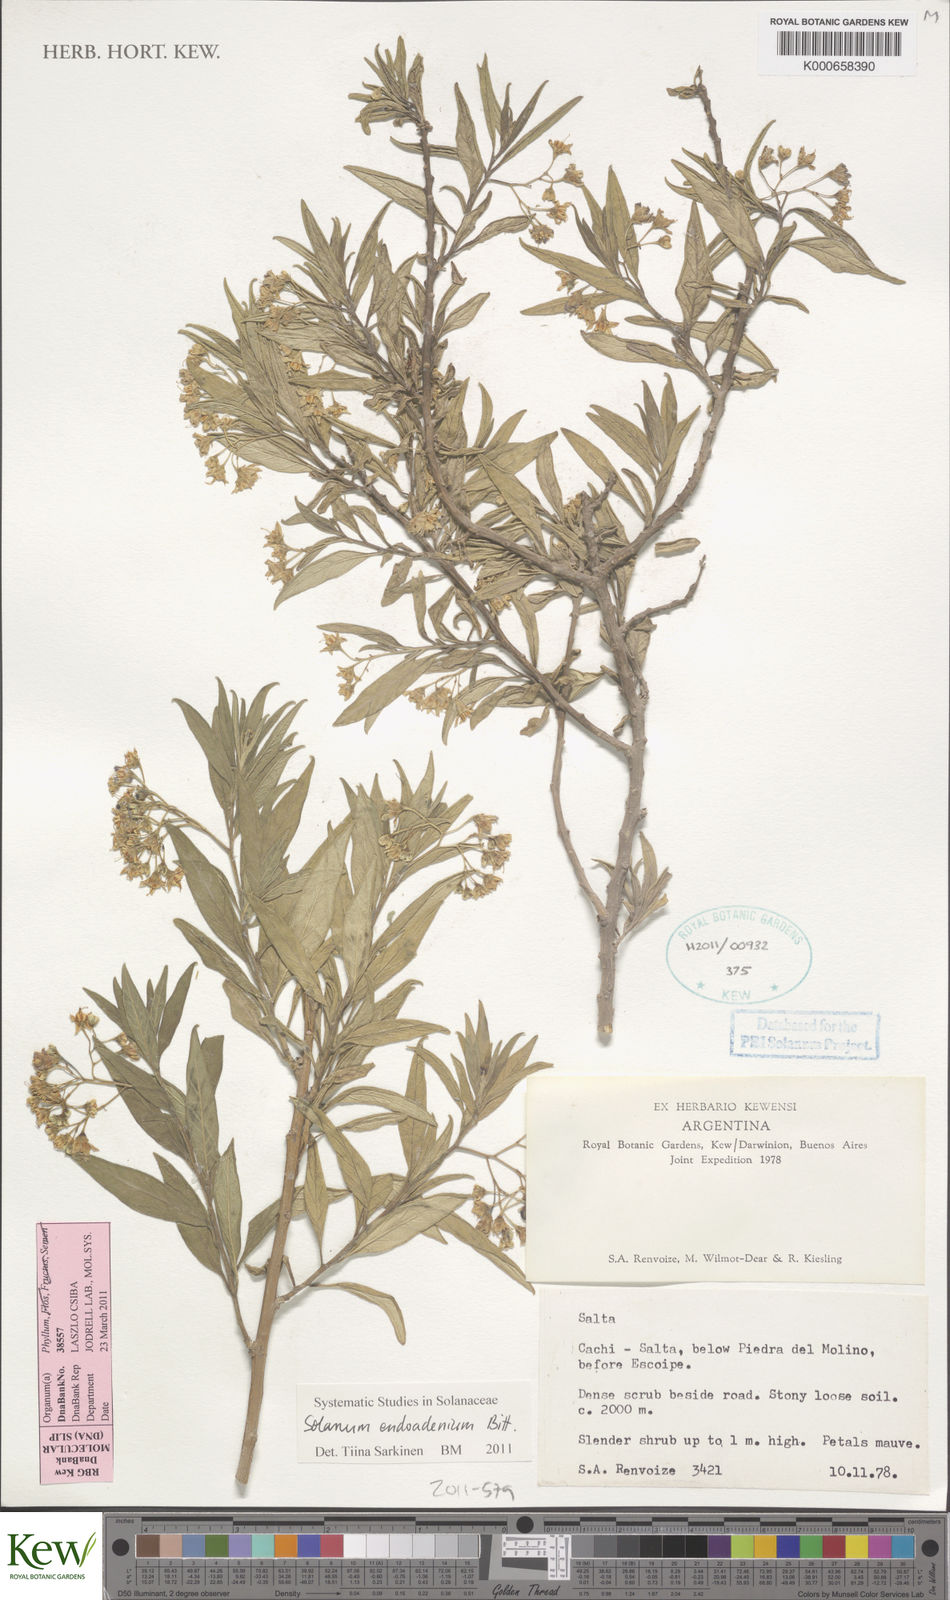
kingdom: Plantae
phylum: Tracheophyta
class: Magnoliopsida
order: Solanales
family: Solanaceae
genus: Solanum
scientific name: Solanum endoadenium
